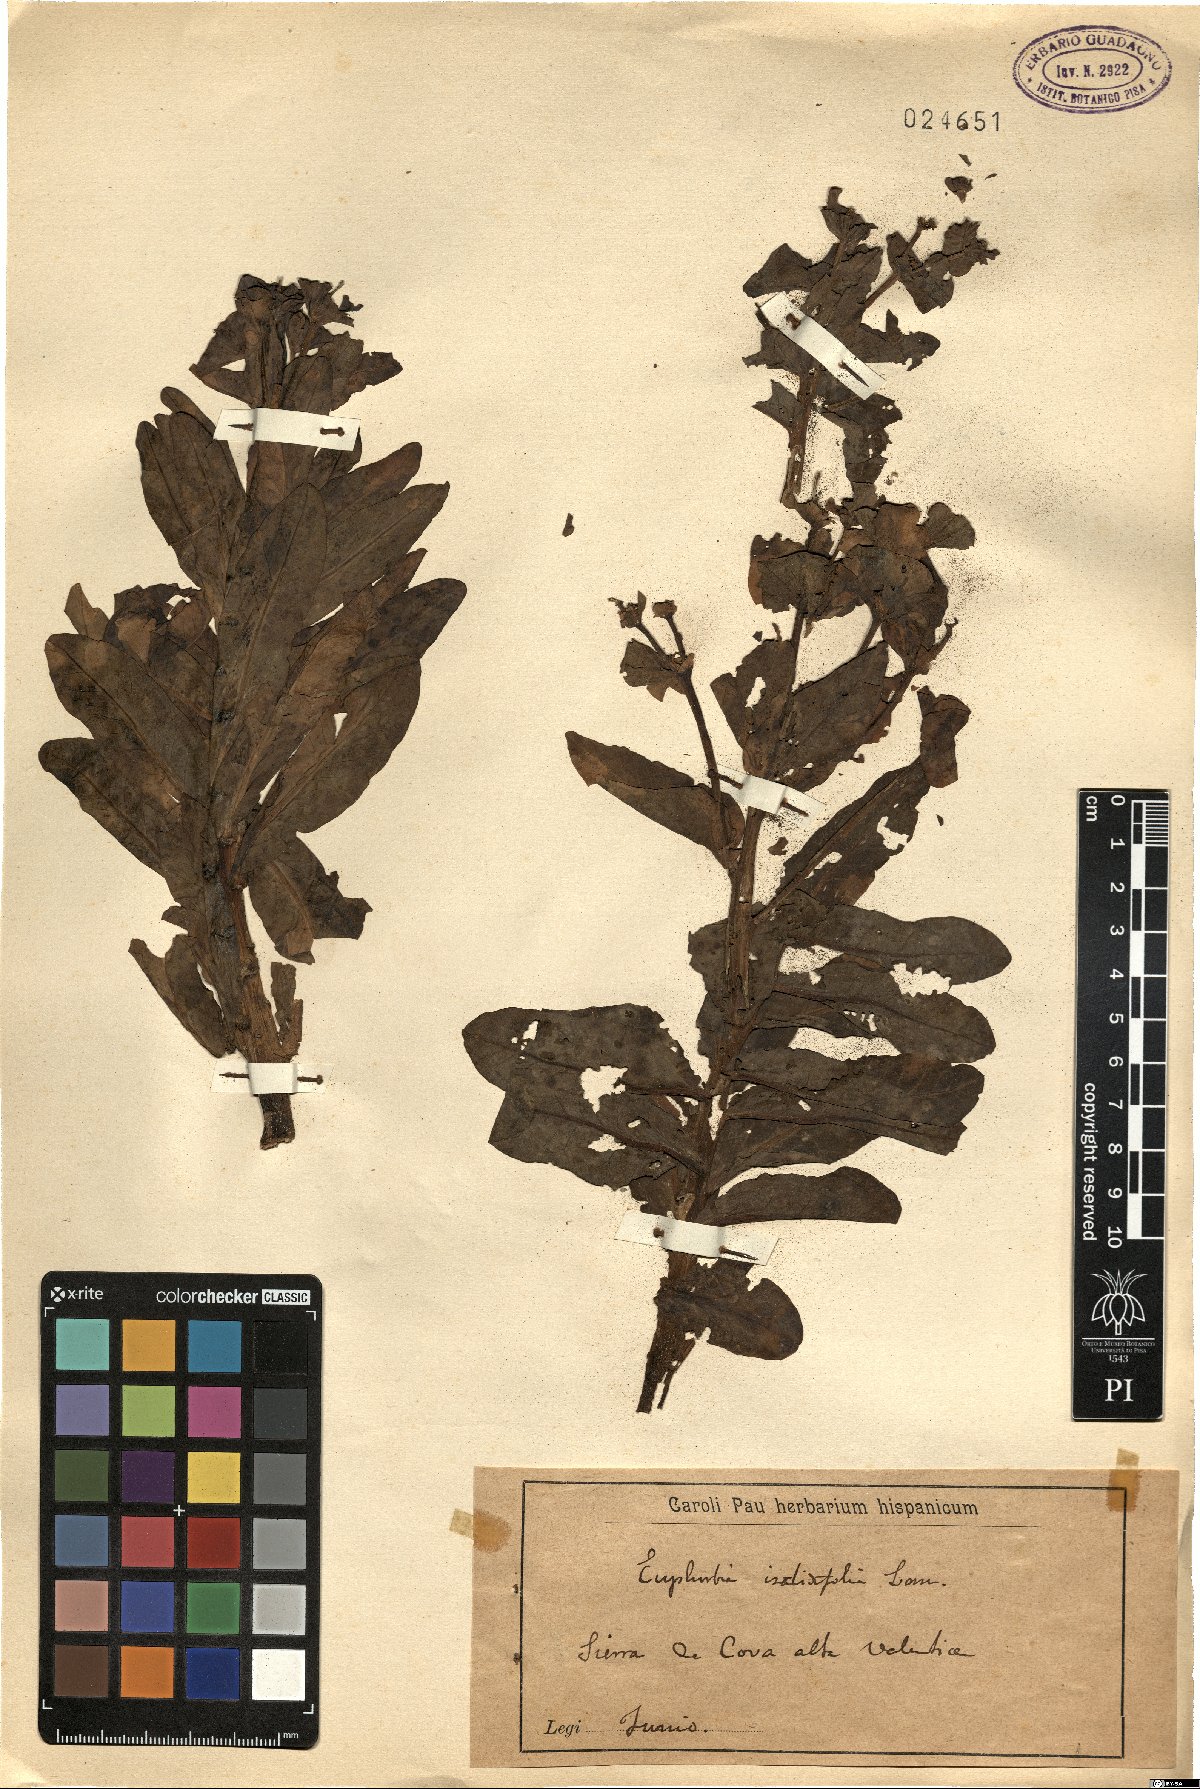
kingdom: Plantae
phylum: Tracheophyta
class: Magnoliopsida
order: Malpighiales
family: Euphorbiaceae
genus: Euphorbia
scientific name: Euphorbia isatidifolia
